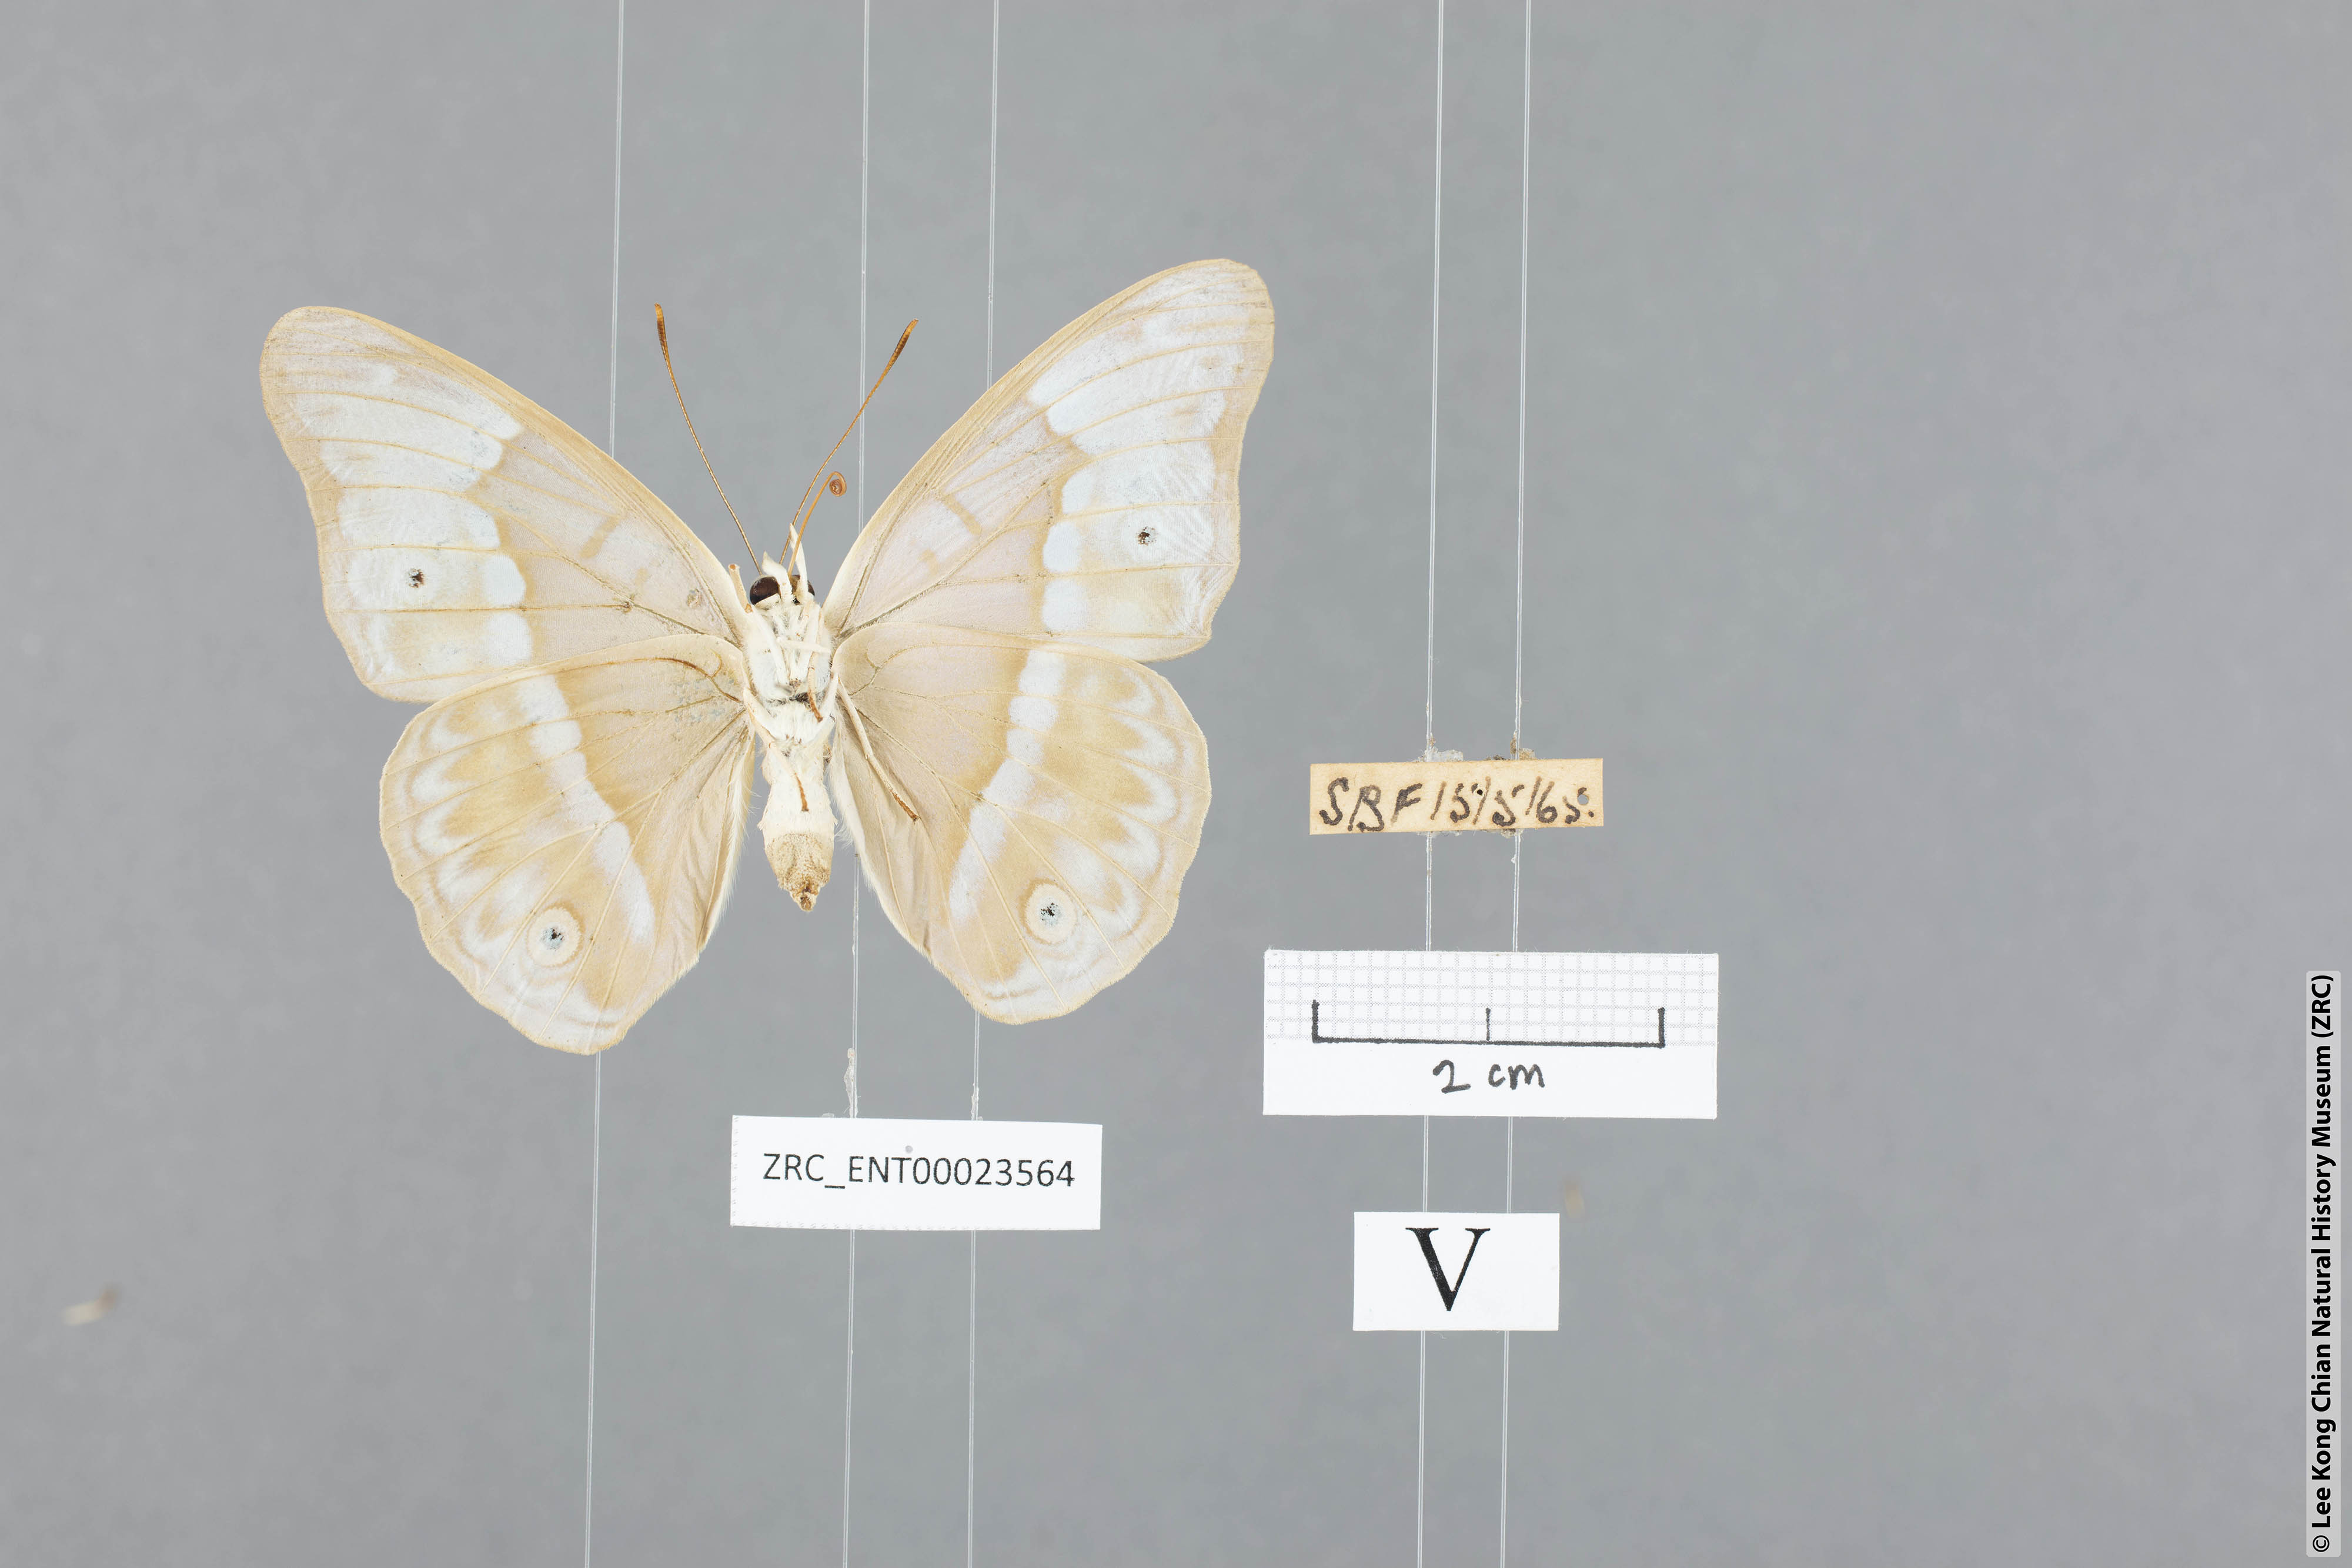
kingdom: Animalia
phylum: Arthropoda
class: Insecta
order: Lepidoptera
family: Nymphalidae
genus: Eulaceura
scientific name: Eulaceura osteria
